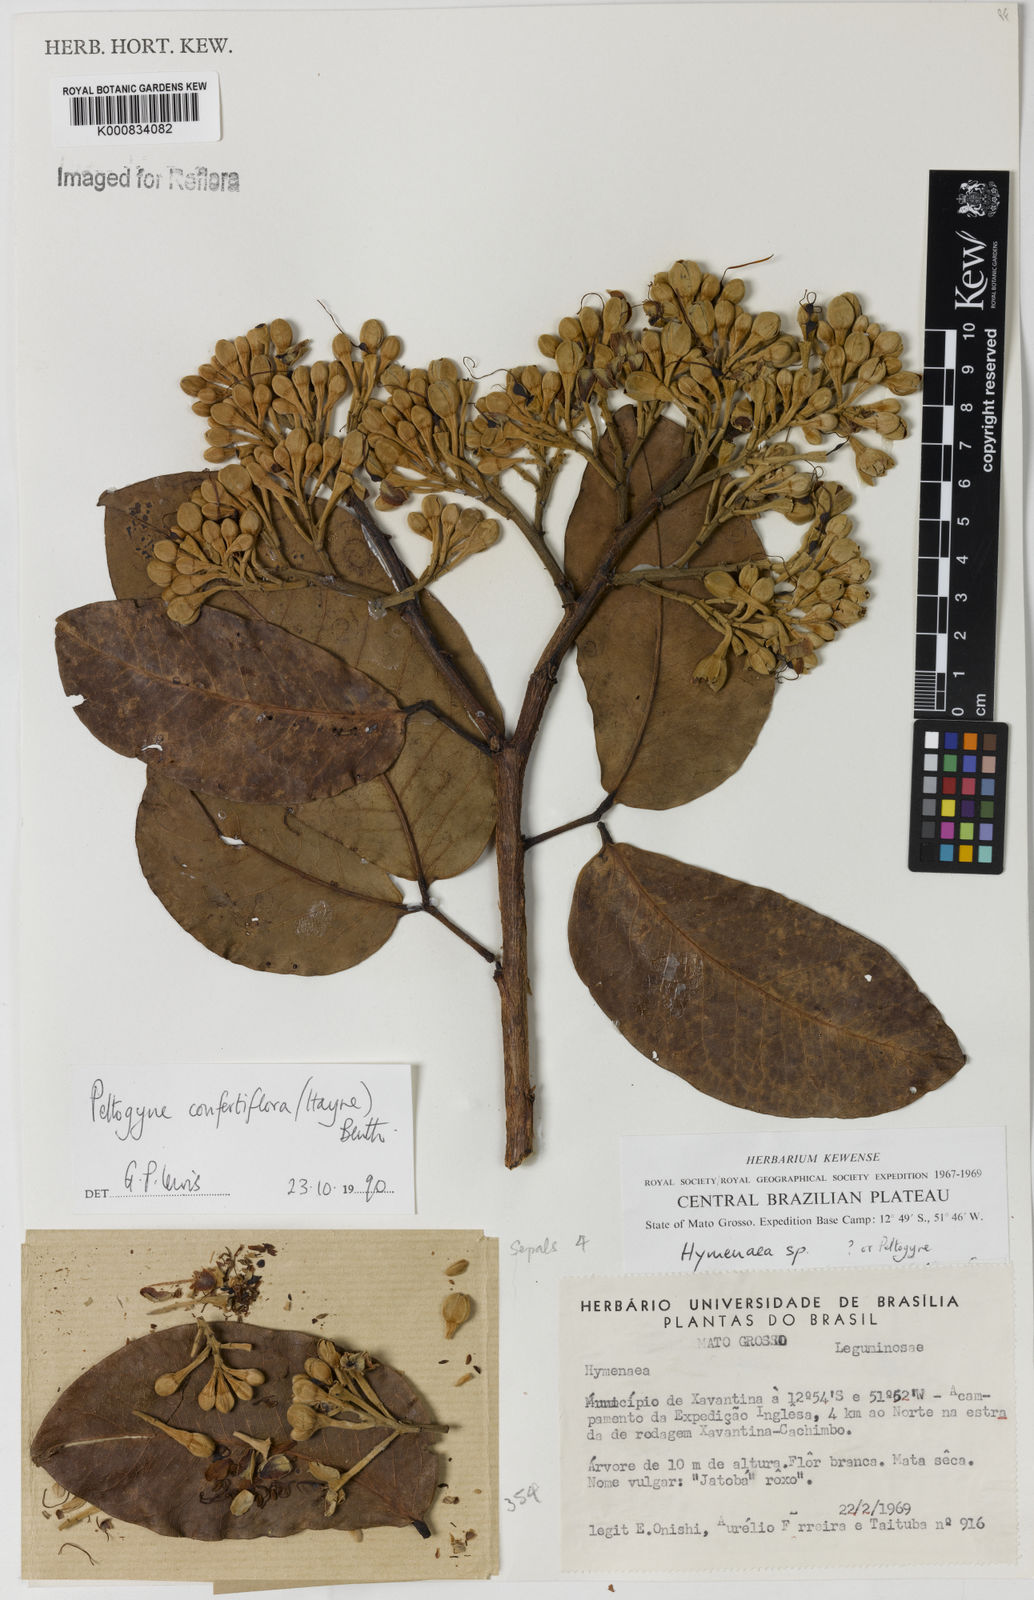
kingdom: Plantae
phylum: Tracheophyta
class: Magnoliopsida
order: Fabales
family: Fabaceae
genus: Peltogyne
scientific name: Peltogyne confertiflora
